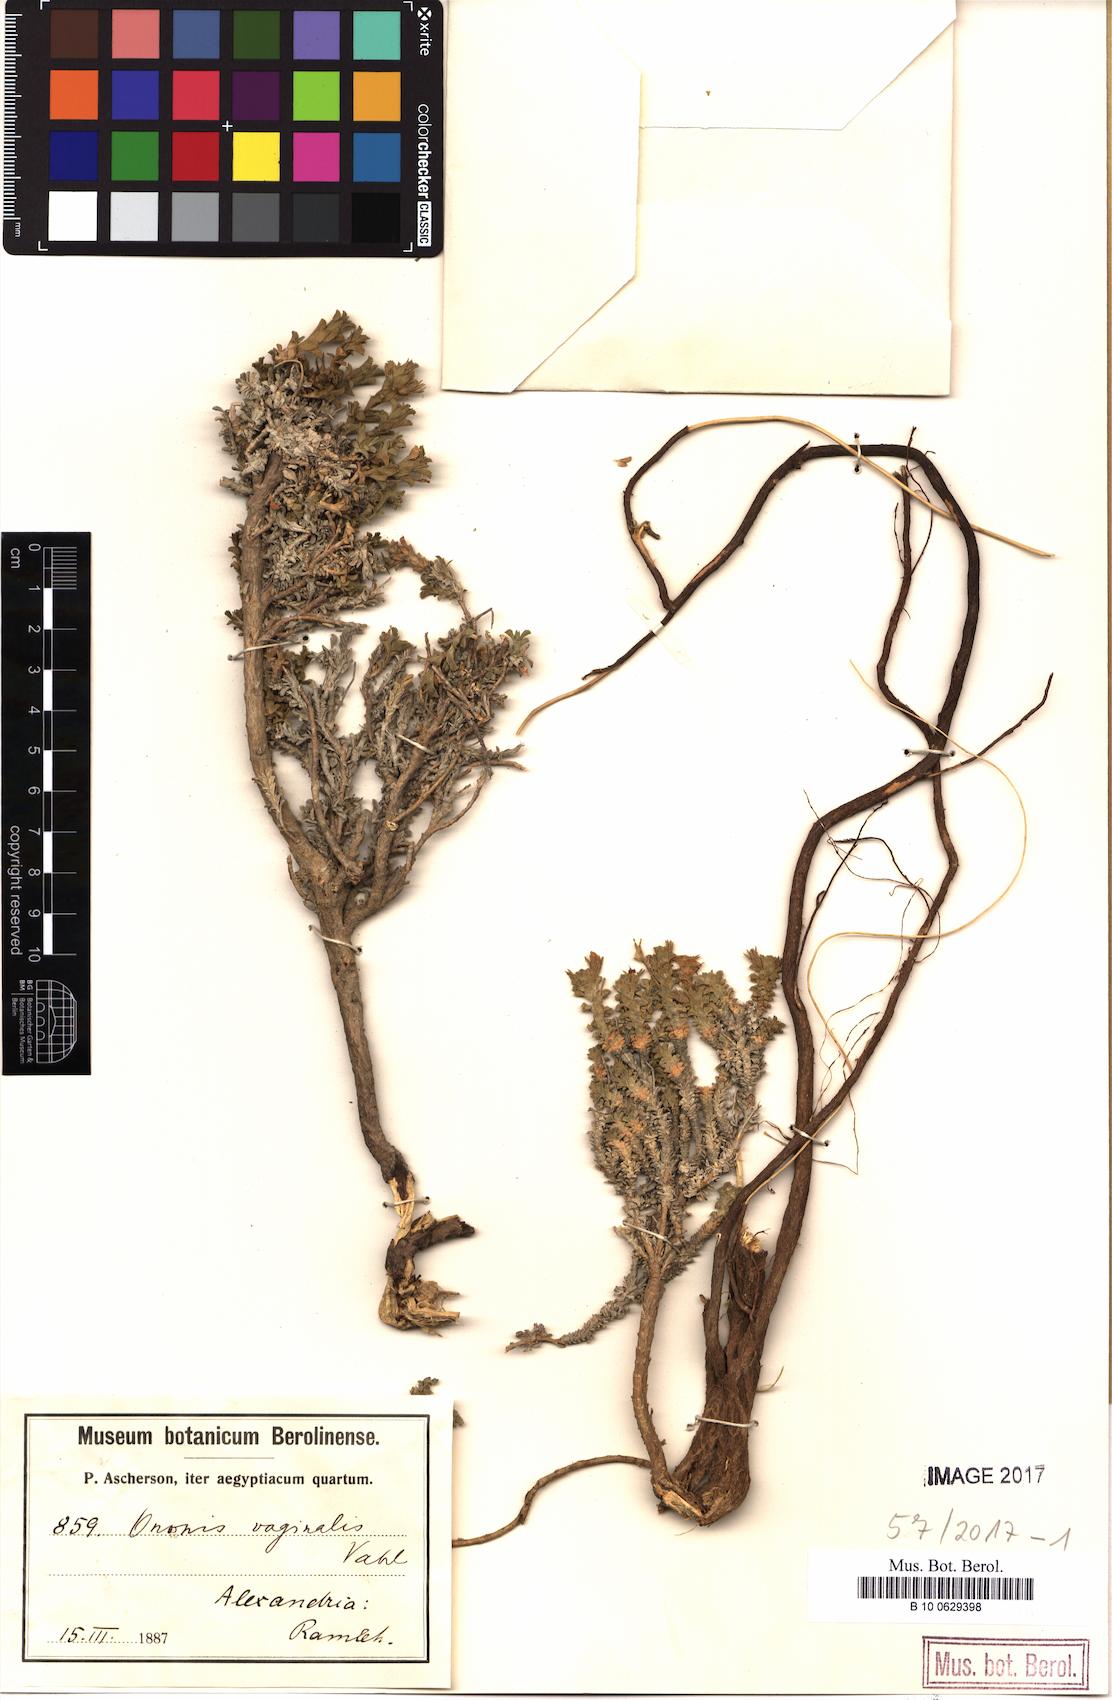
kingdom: Plantae
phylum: Tracheophyta
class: Magnoliopsida
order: Fabales
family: Fabaceae
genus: Ononis
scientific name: Ononis vaginalis
